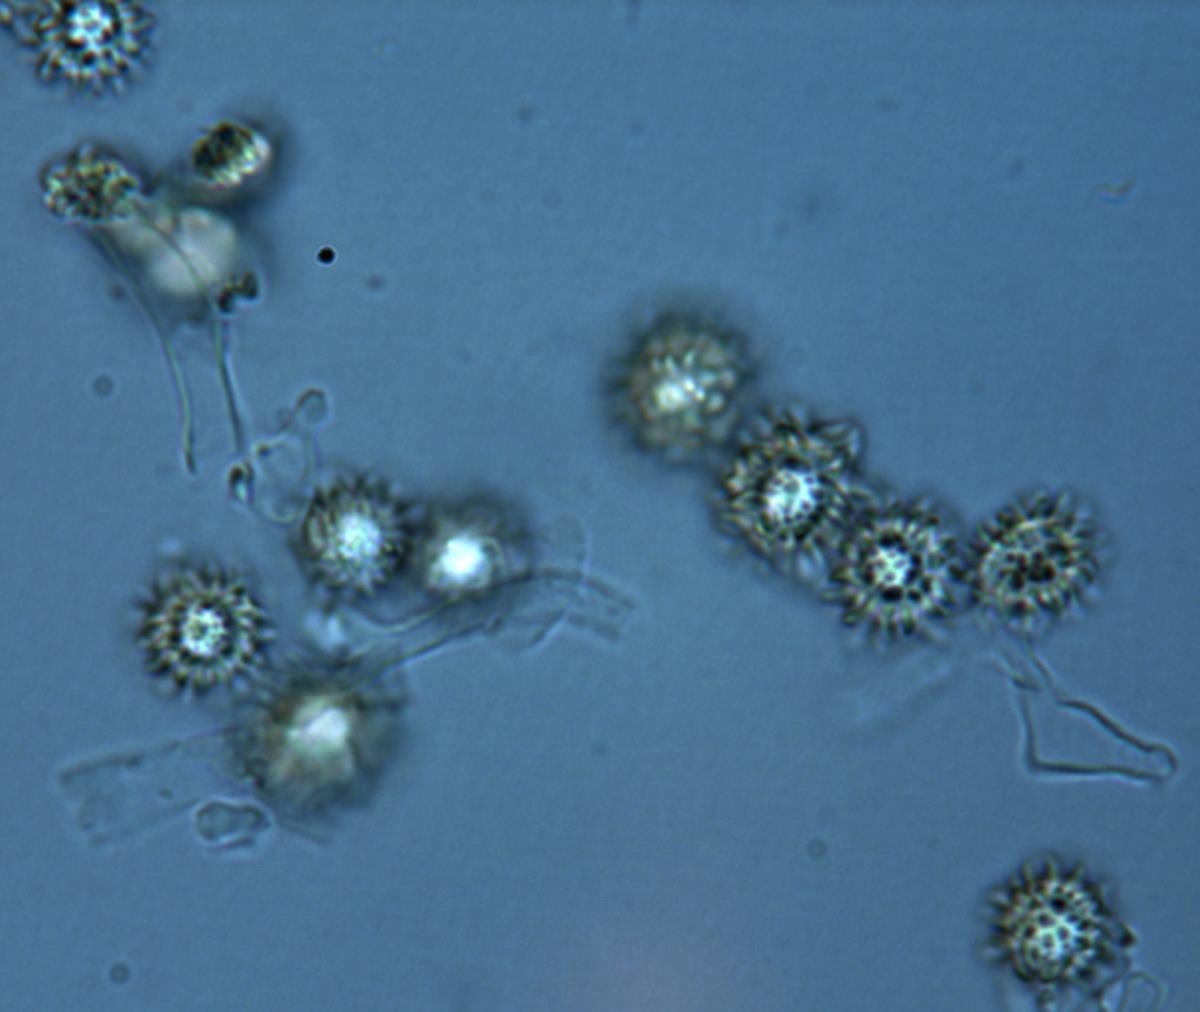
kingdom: Fungi
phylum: Basidiomycota
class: Agaricomycetes
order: Boletales
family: Sclerodermataceae
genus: Pisolithus
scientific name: Pisolithus
